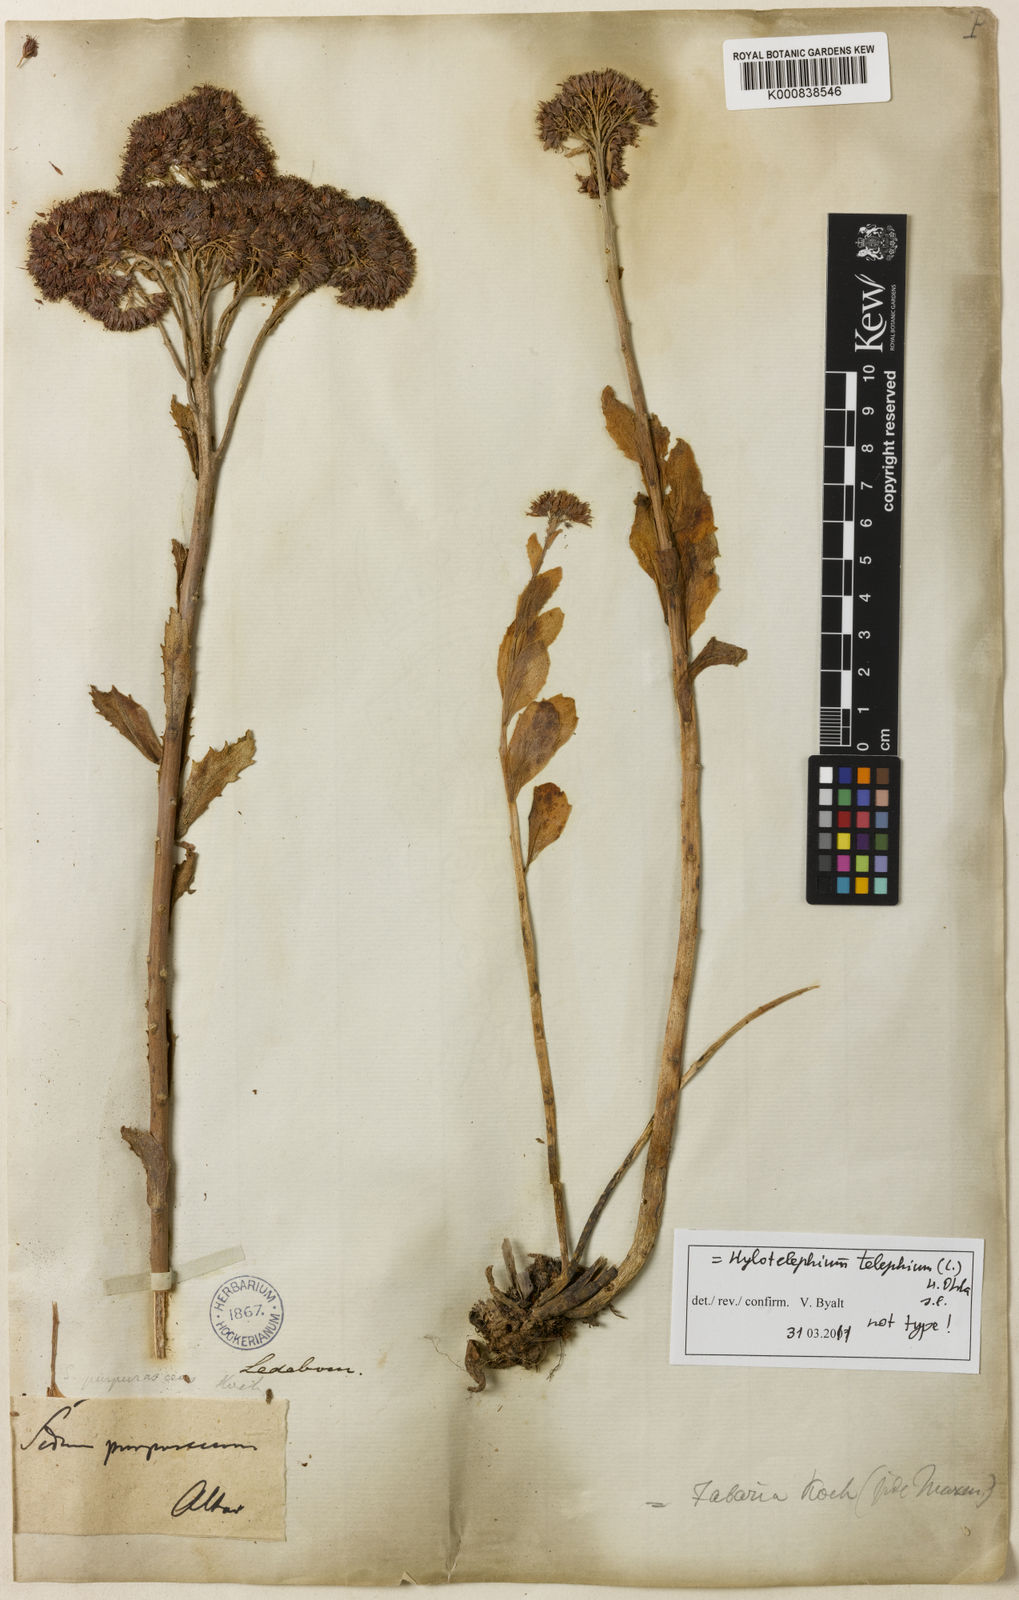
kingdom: Plantae
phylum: Tracheophyta
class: Magnoliopsida
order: Saxifragales
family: Crassulaceae
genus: Hylotelephium
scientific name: Hylotelephium telephium
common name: Live-forever
